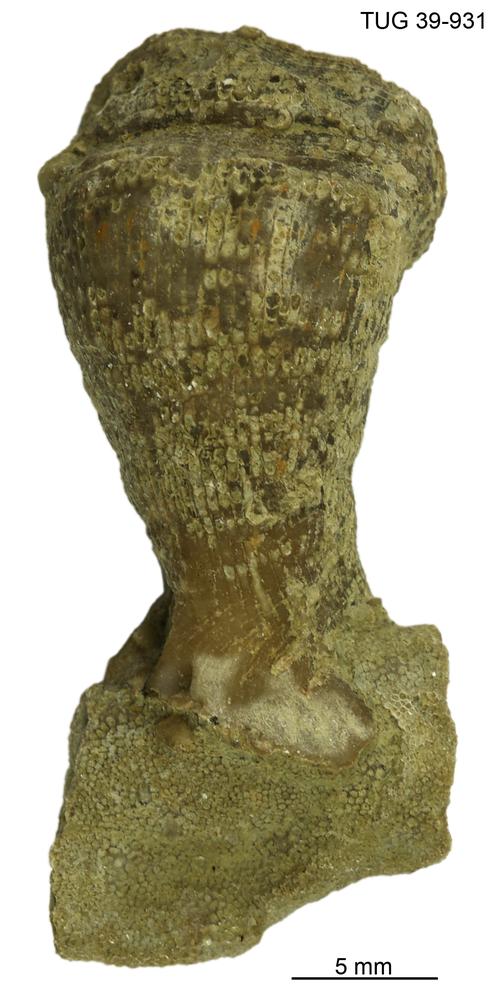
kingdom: Animalia
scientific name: Animalia
